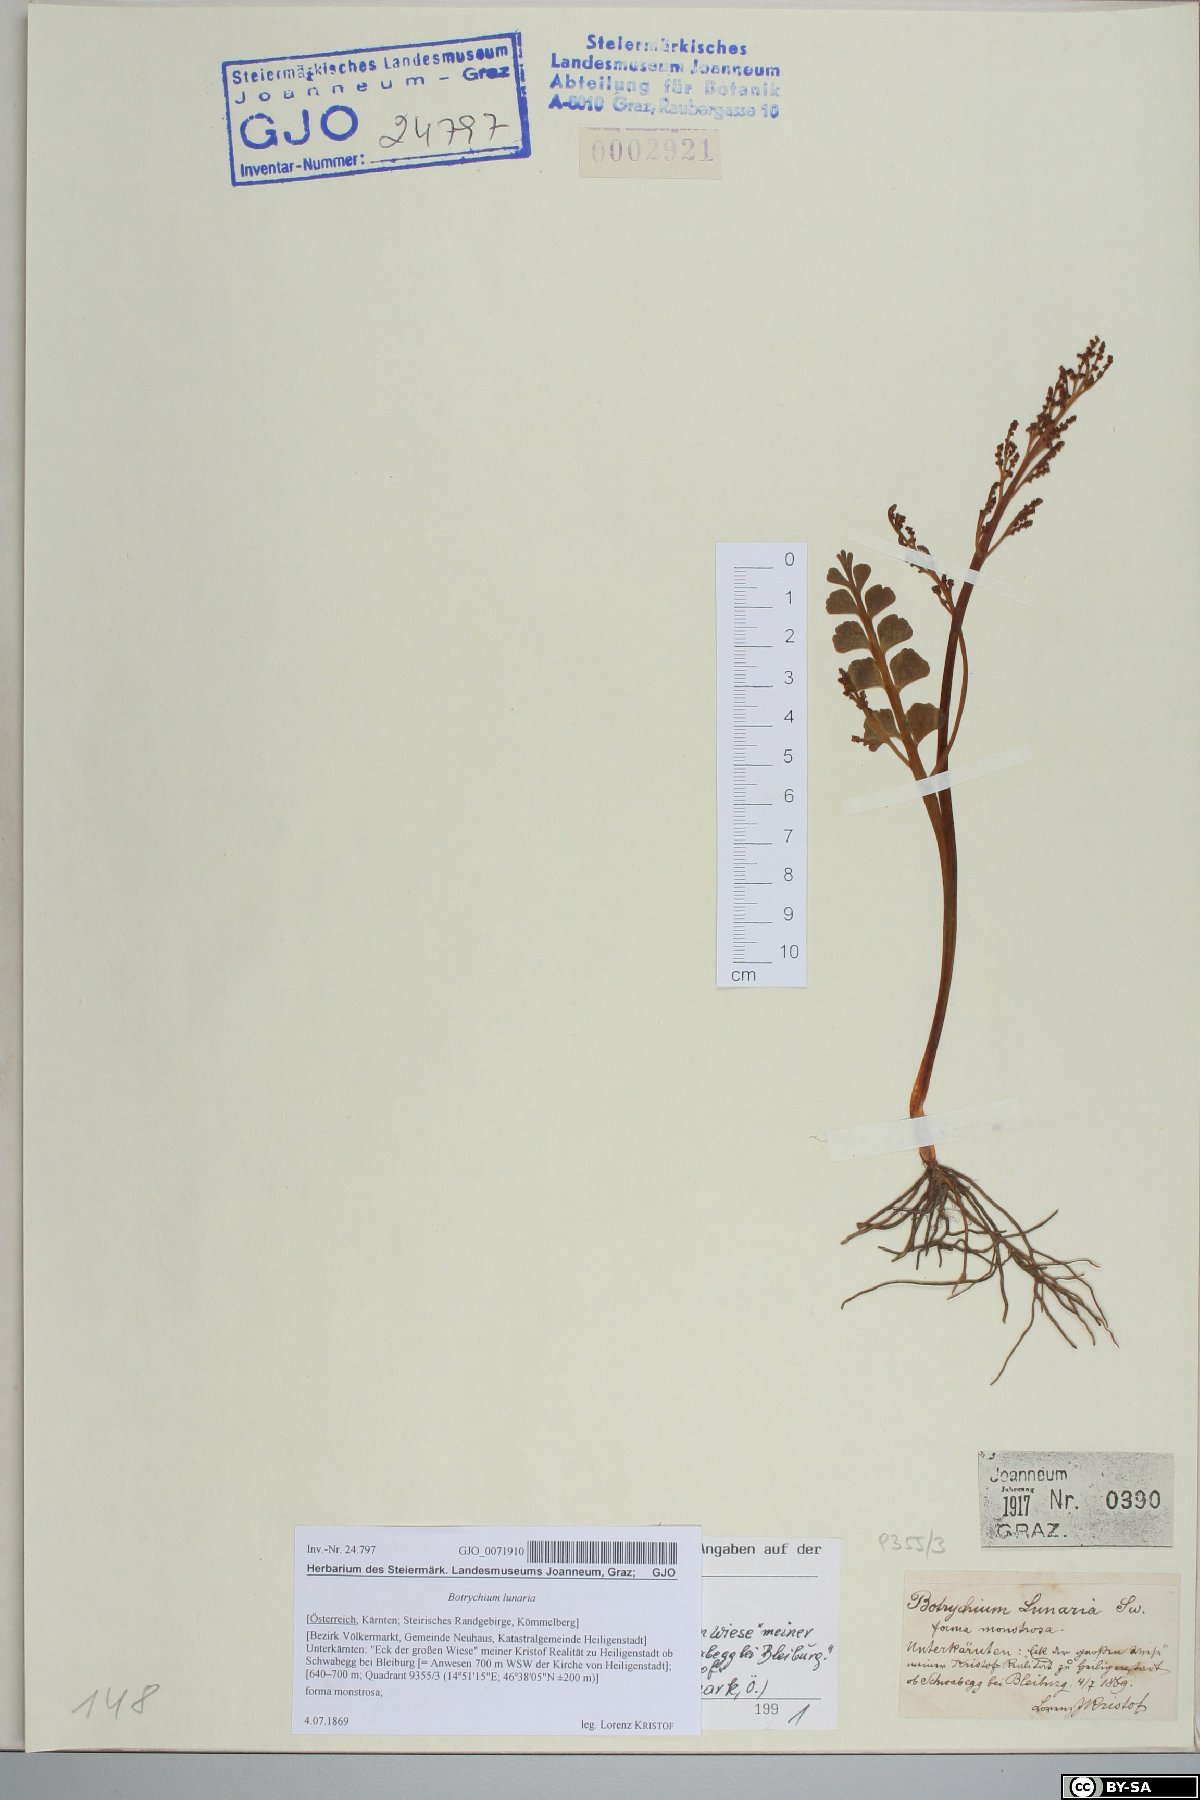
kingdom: Plantae
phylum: Tracheophyta
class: Polypodiopsida
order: Ophioglossales
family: Ophioglossaceae
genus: Botrychium
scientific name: Botrychium lunaria
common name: Moonwort
